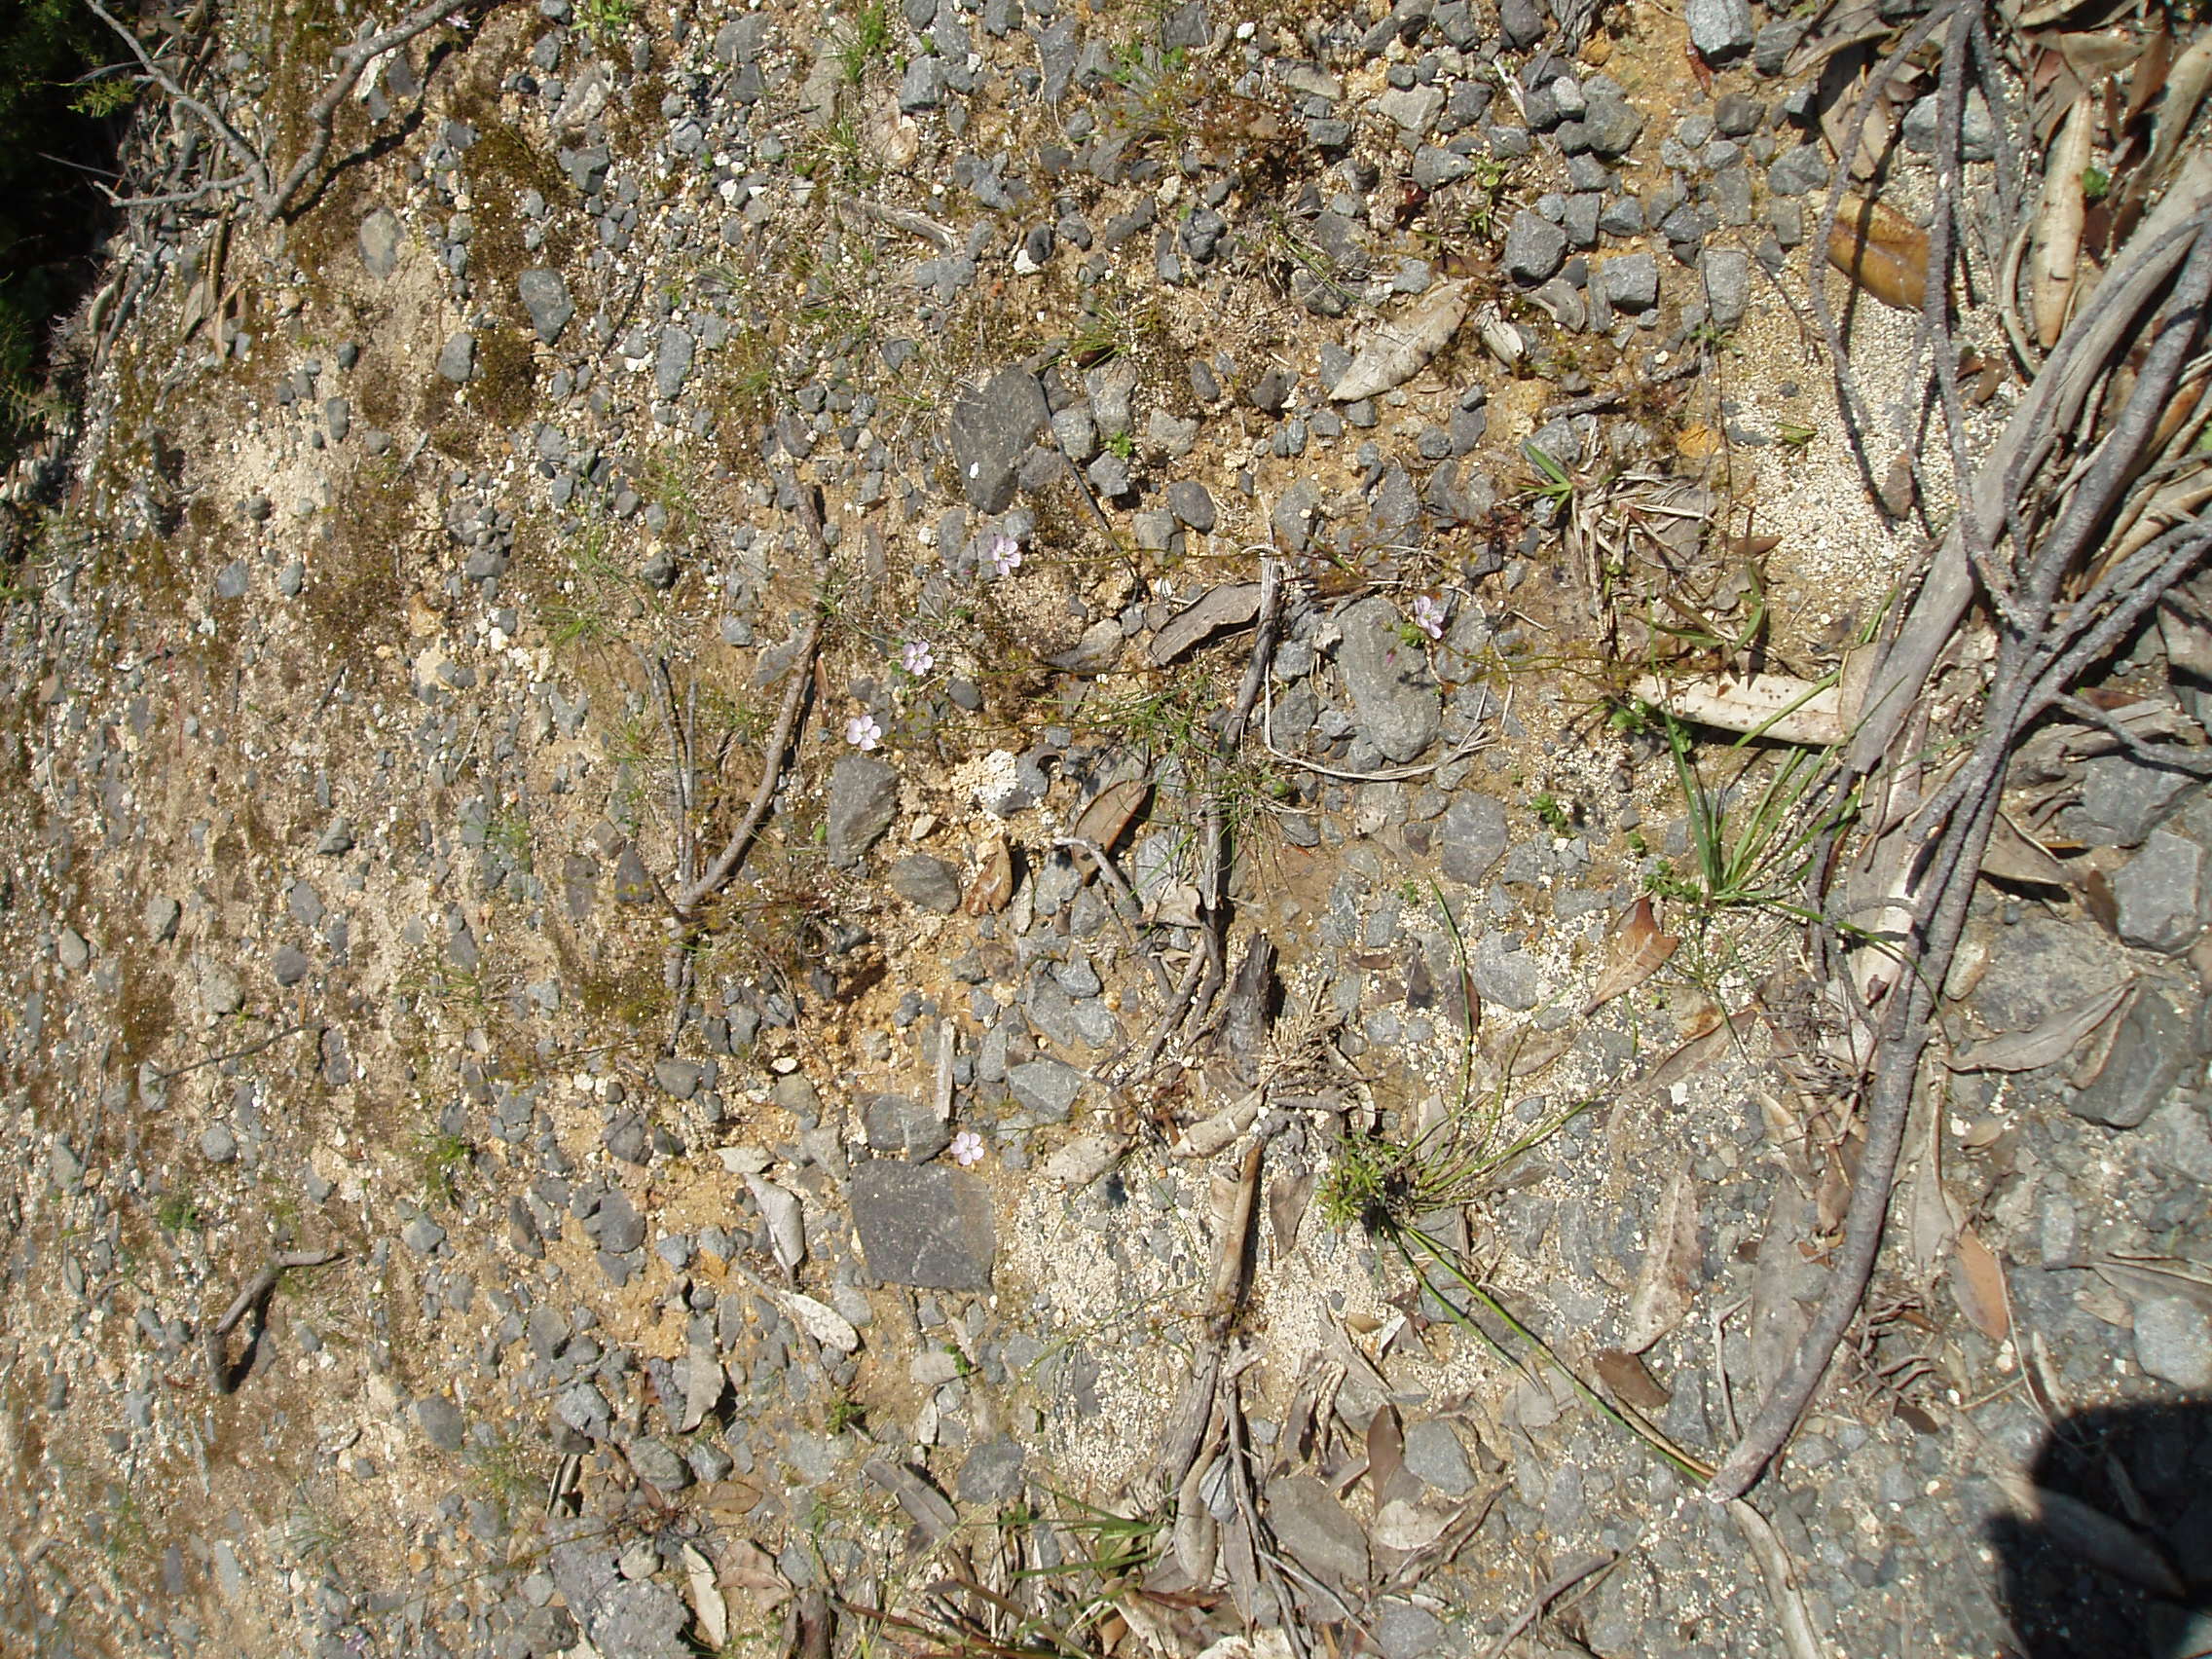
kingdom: Plantae
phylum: Tracheophyta
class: Magnoliopsida
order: Caryophyllales
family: Droseraceae
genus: Drosera
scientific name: Drosera peltata
